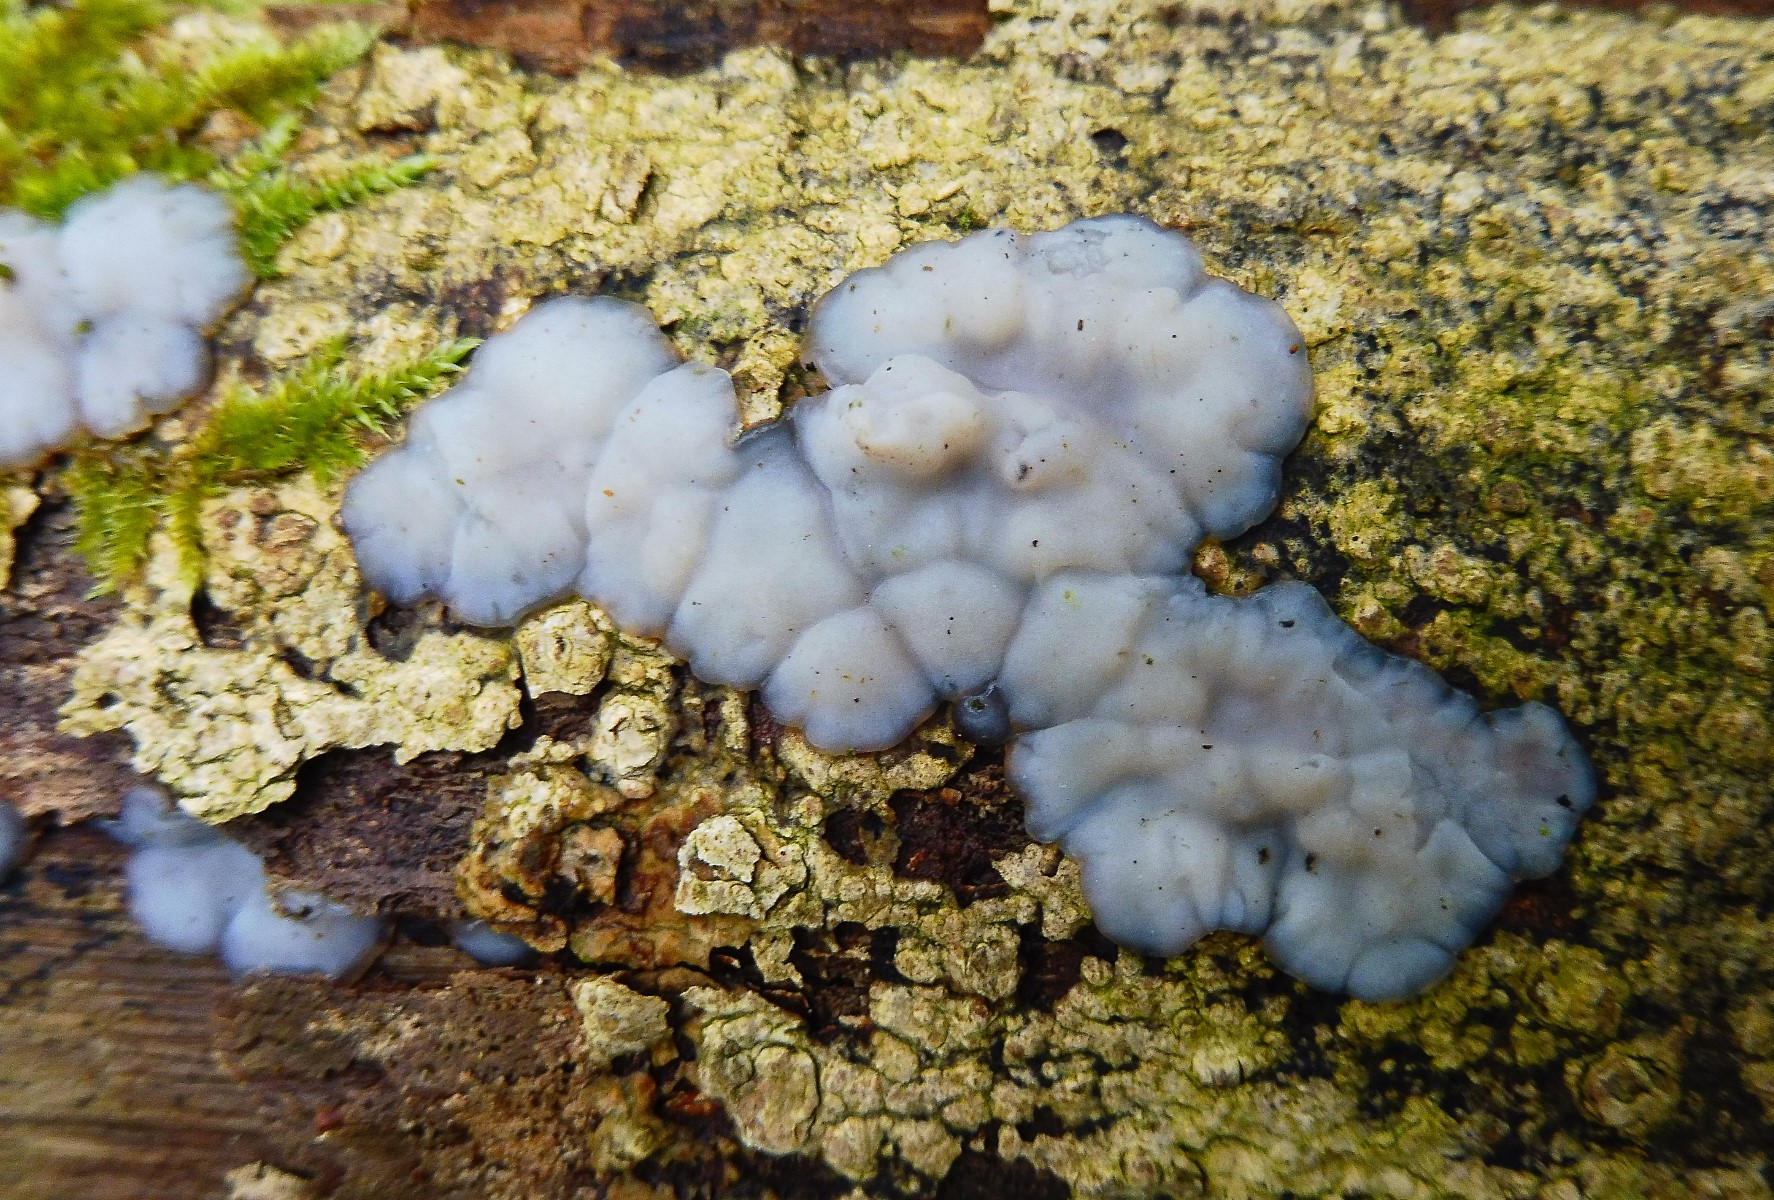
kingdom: Fungi
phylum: Basidiomycota
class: Agaricomycetes
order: Auriculariales
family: Auriculariaceae
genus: Exidia
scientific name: Exidia thuretiana
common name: hvidlig bævretop
